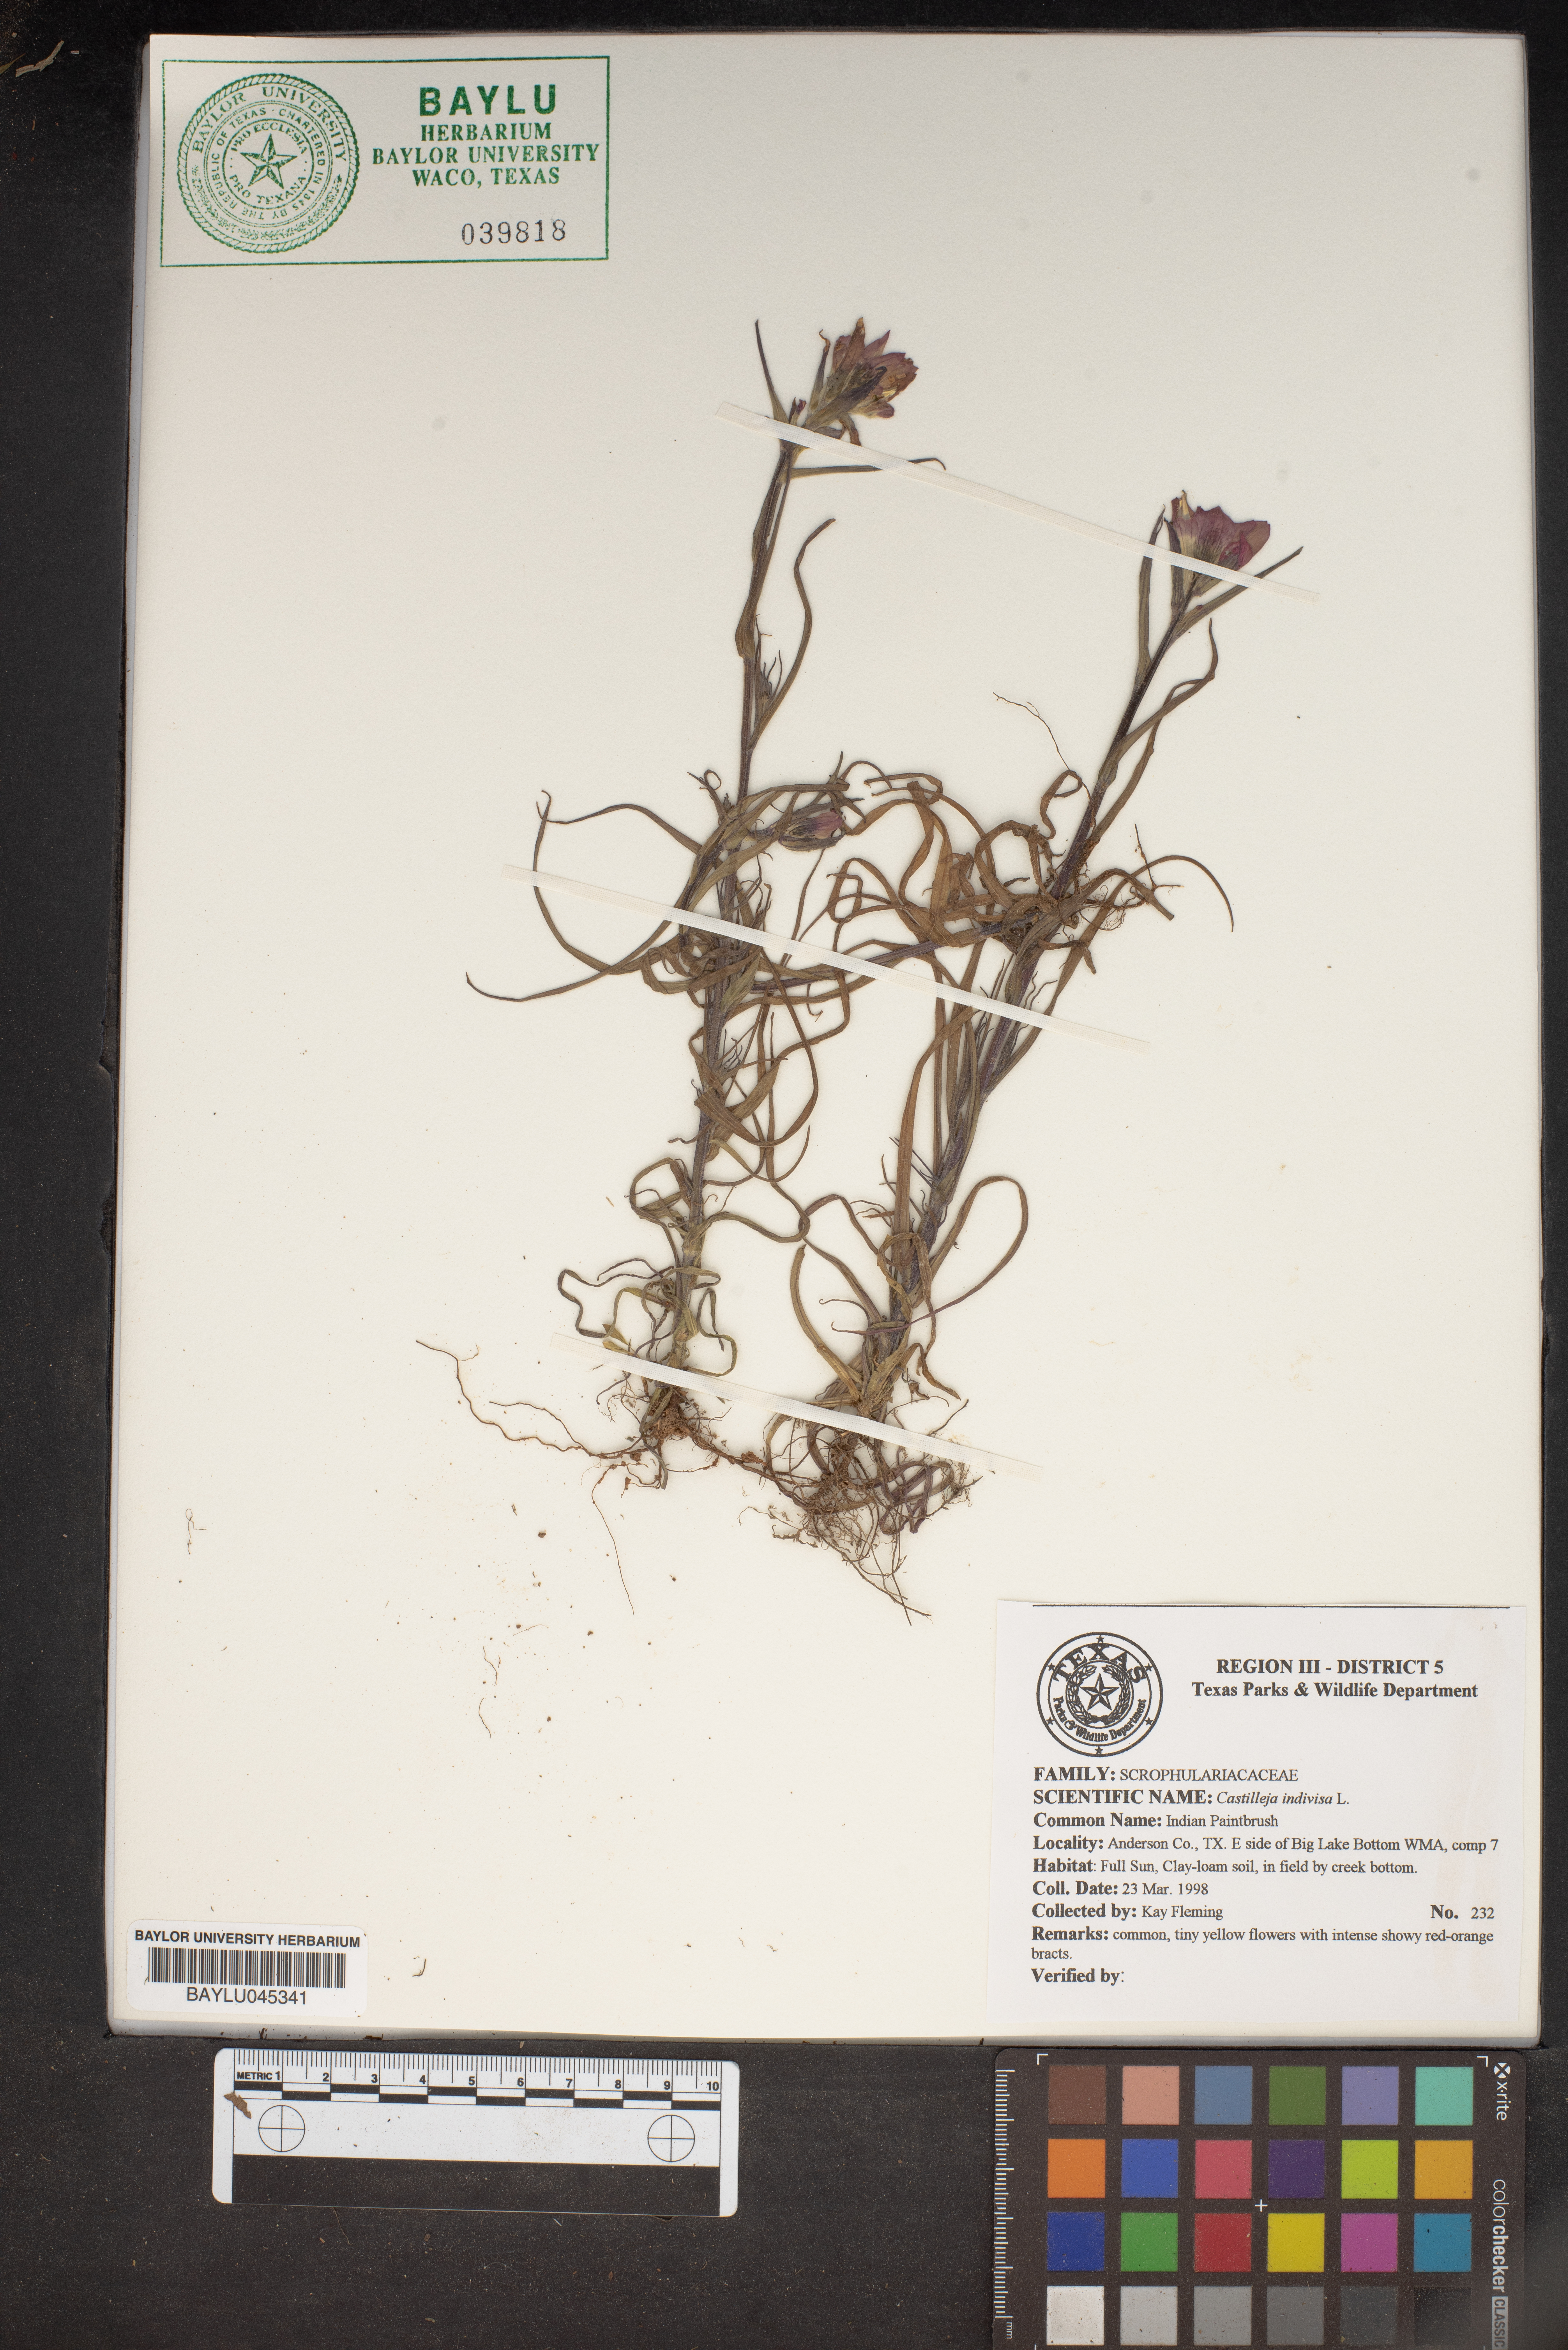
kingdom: Plantae
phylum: Tracheophyta
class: Magnoliopsida
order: Lamiales
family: Orobanchaceae
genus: Castilleja
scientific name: Castilleja indivisa
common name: Texas paintbrush
